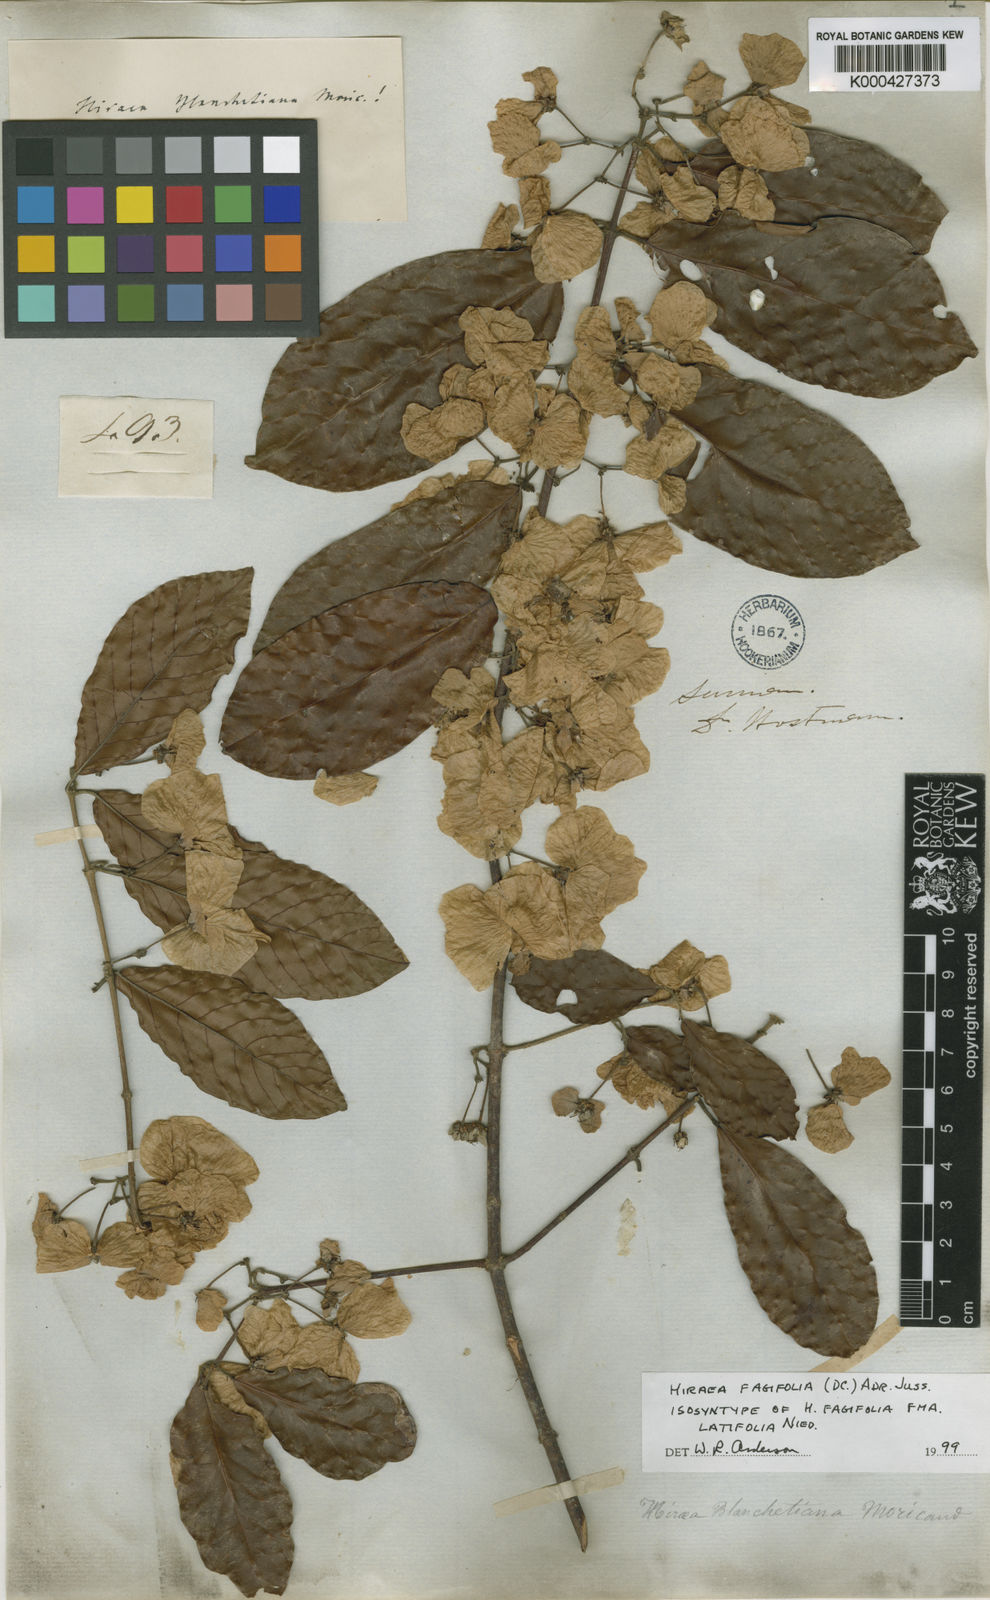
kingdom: Plantae
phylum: Tracheophyta
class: Magnoliopsida
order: Malpighiales
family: Malpighiaceae
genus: Hiraea
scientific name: Hiraea fagifolia
